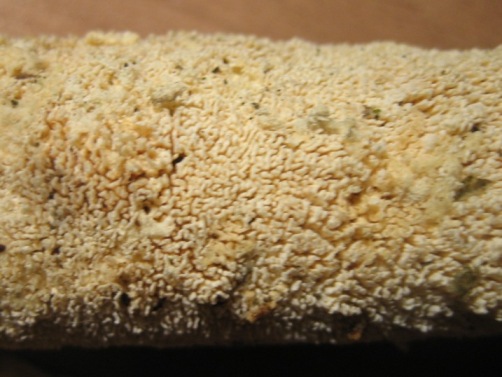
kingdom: Fungi
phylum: Basidiomycota
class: Agaricomycetes
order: Hymenochaetales
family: Schizoporaceae
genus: Schizopora
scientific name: Schizopora paradoxa
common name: hvid tandsvamp
